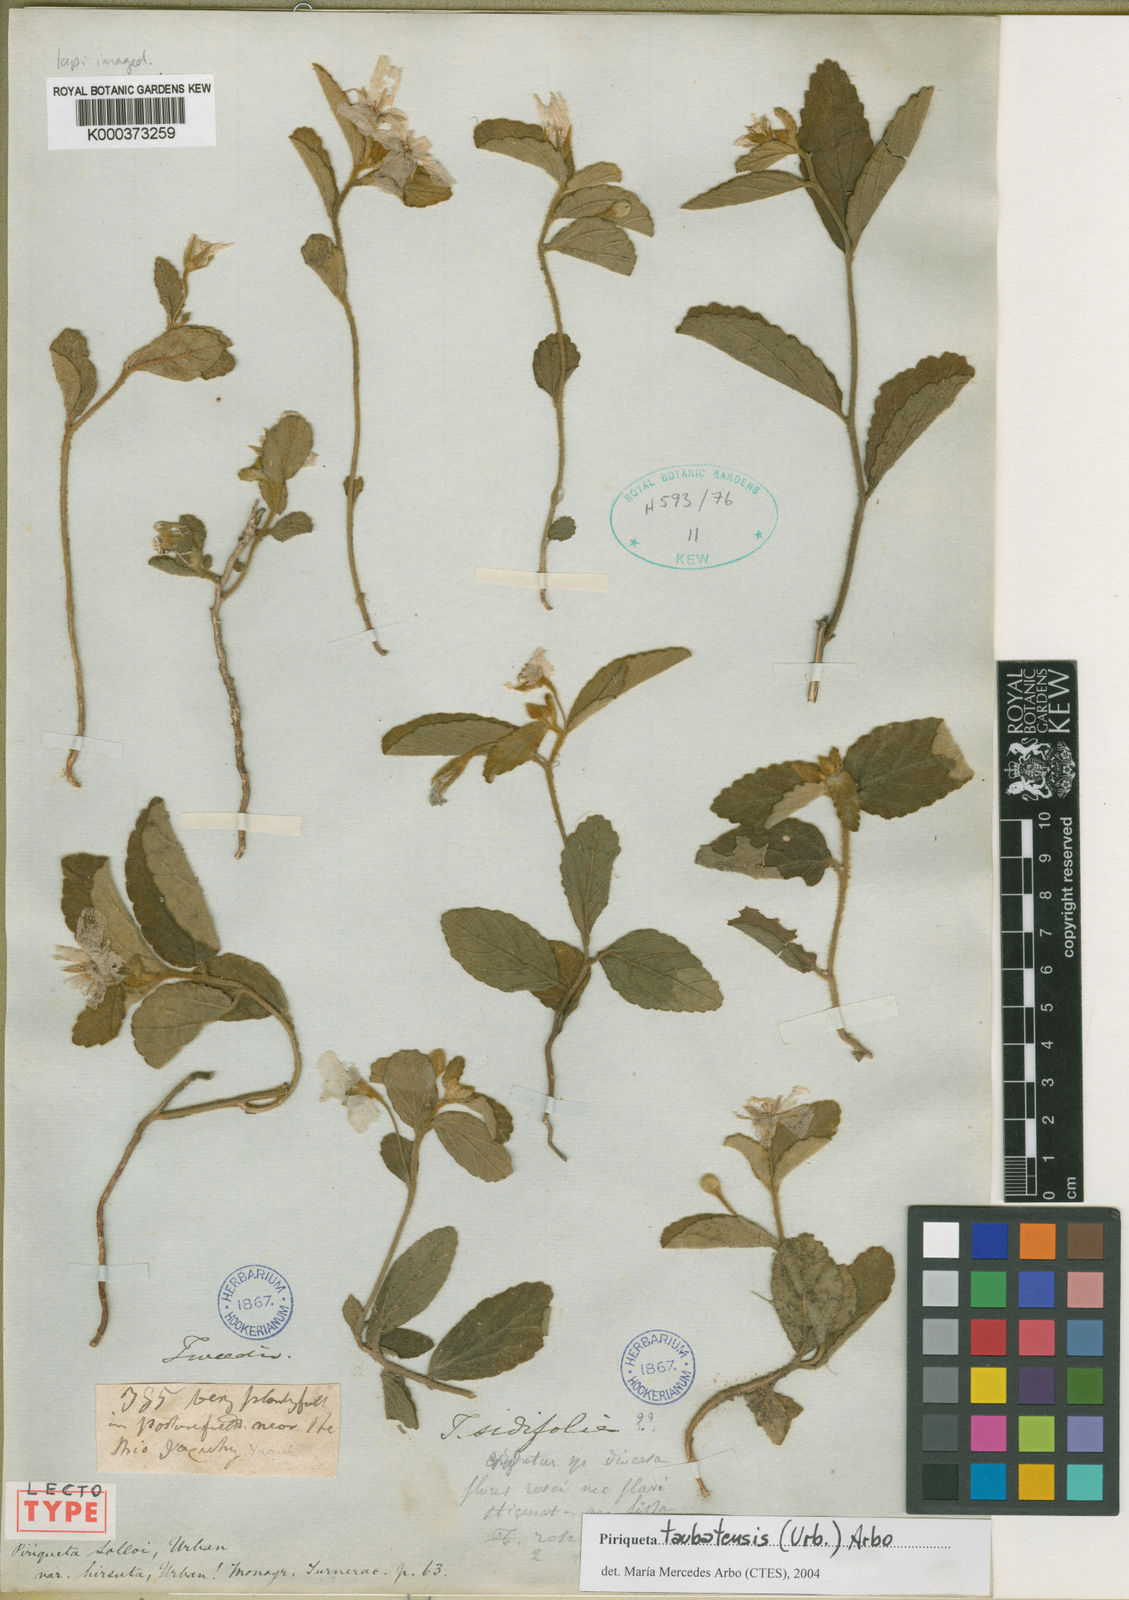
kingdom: Plantae
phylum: Tracheophyta
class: Magnoliopsida
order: Malpighiales
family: Turneraceae
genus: Piriqueta
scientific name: Piriqueta taubatensis
